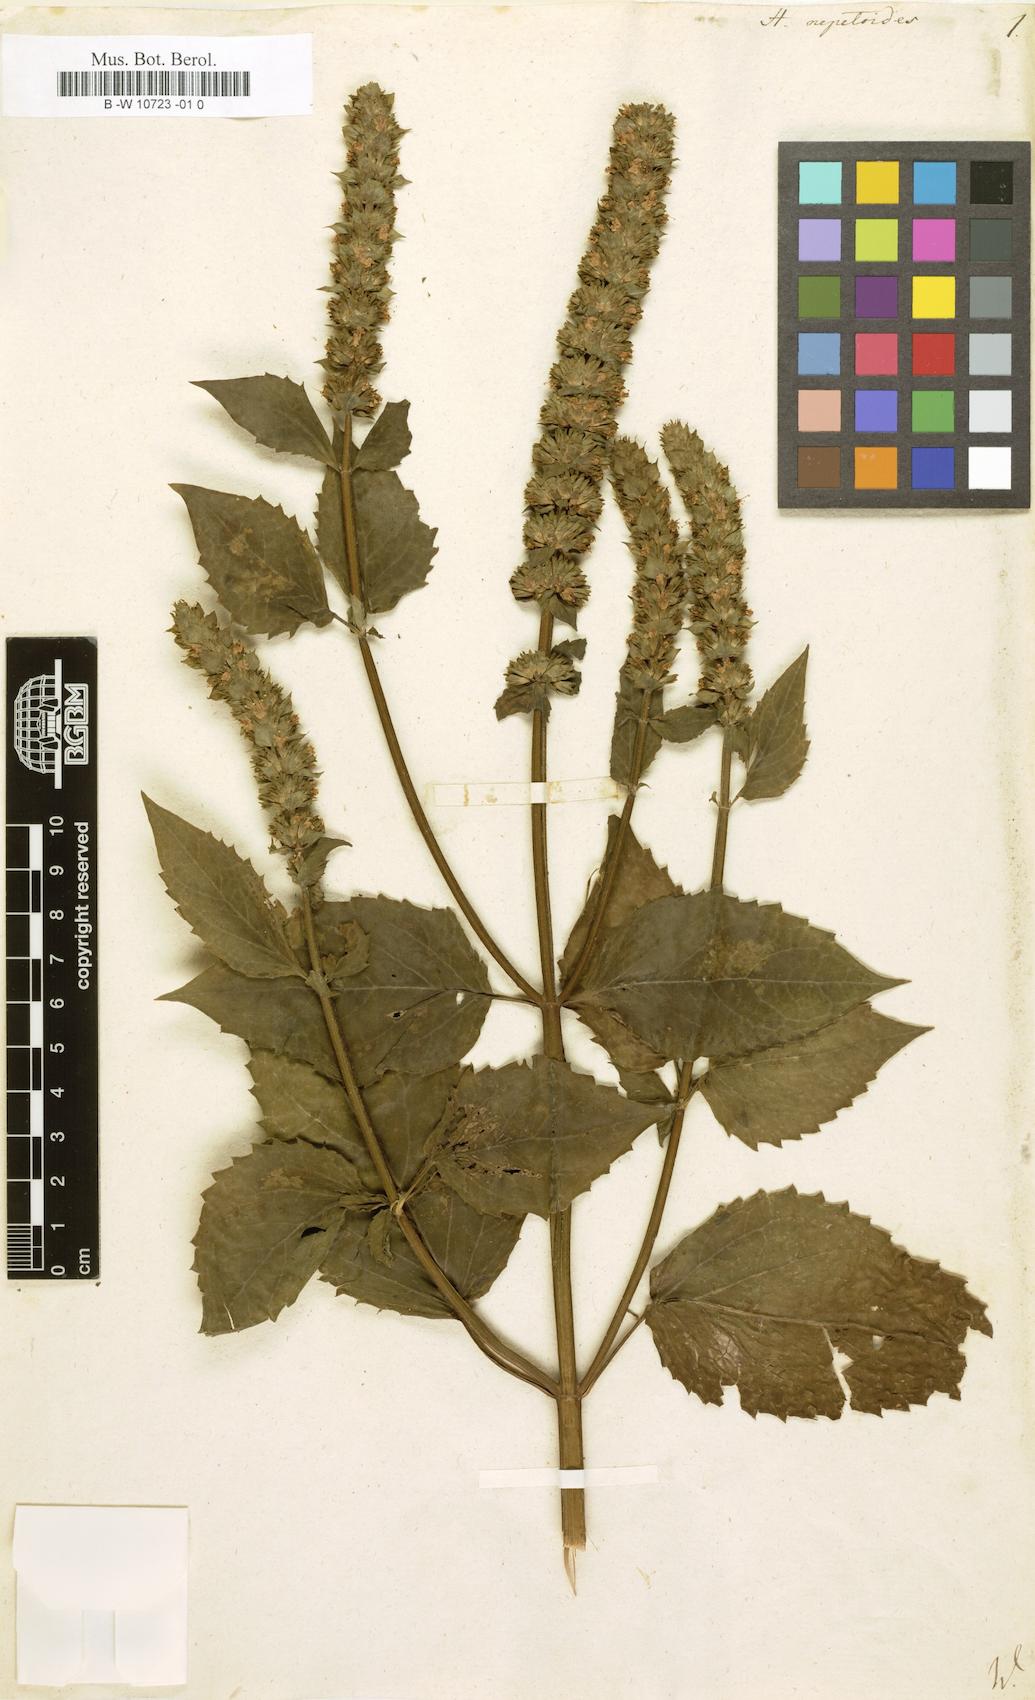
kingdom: Plantae
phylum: Tracheophyta
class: Magnoliopsida
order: Lamiales
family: Lamiaceae
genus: Hyssopus
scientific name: Hyssopus nepetoides
